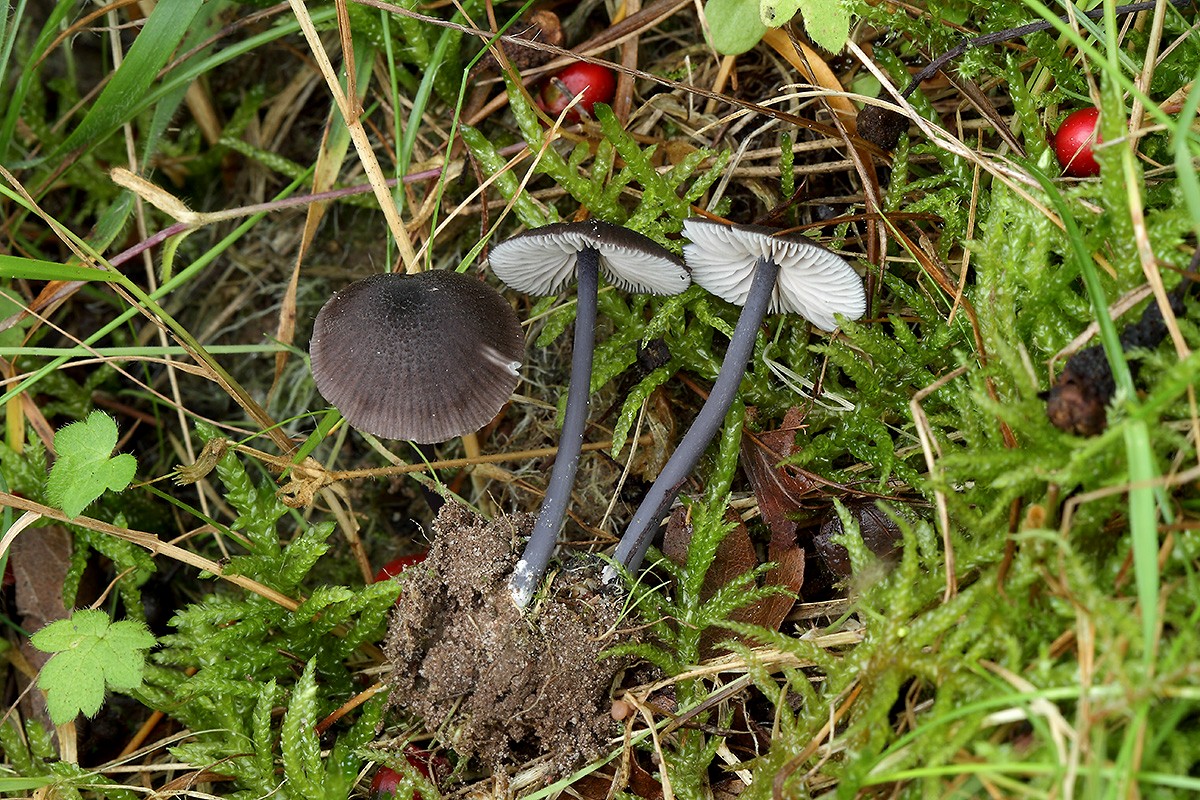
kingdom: Fungi
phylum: Basidiomycota
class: Agaricomycetes
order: Agaricales
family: Entolomataceae
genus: Entoloma
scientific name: Entoloma pseudocyanulum
